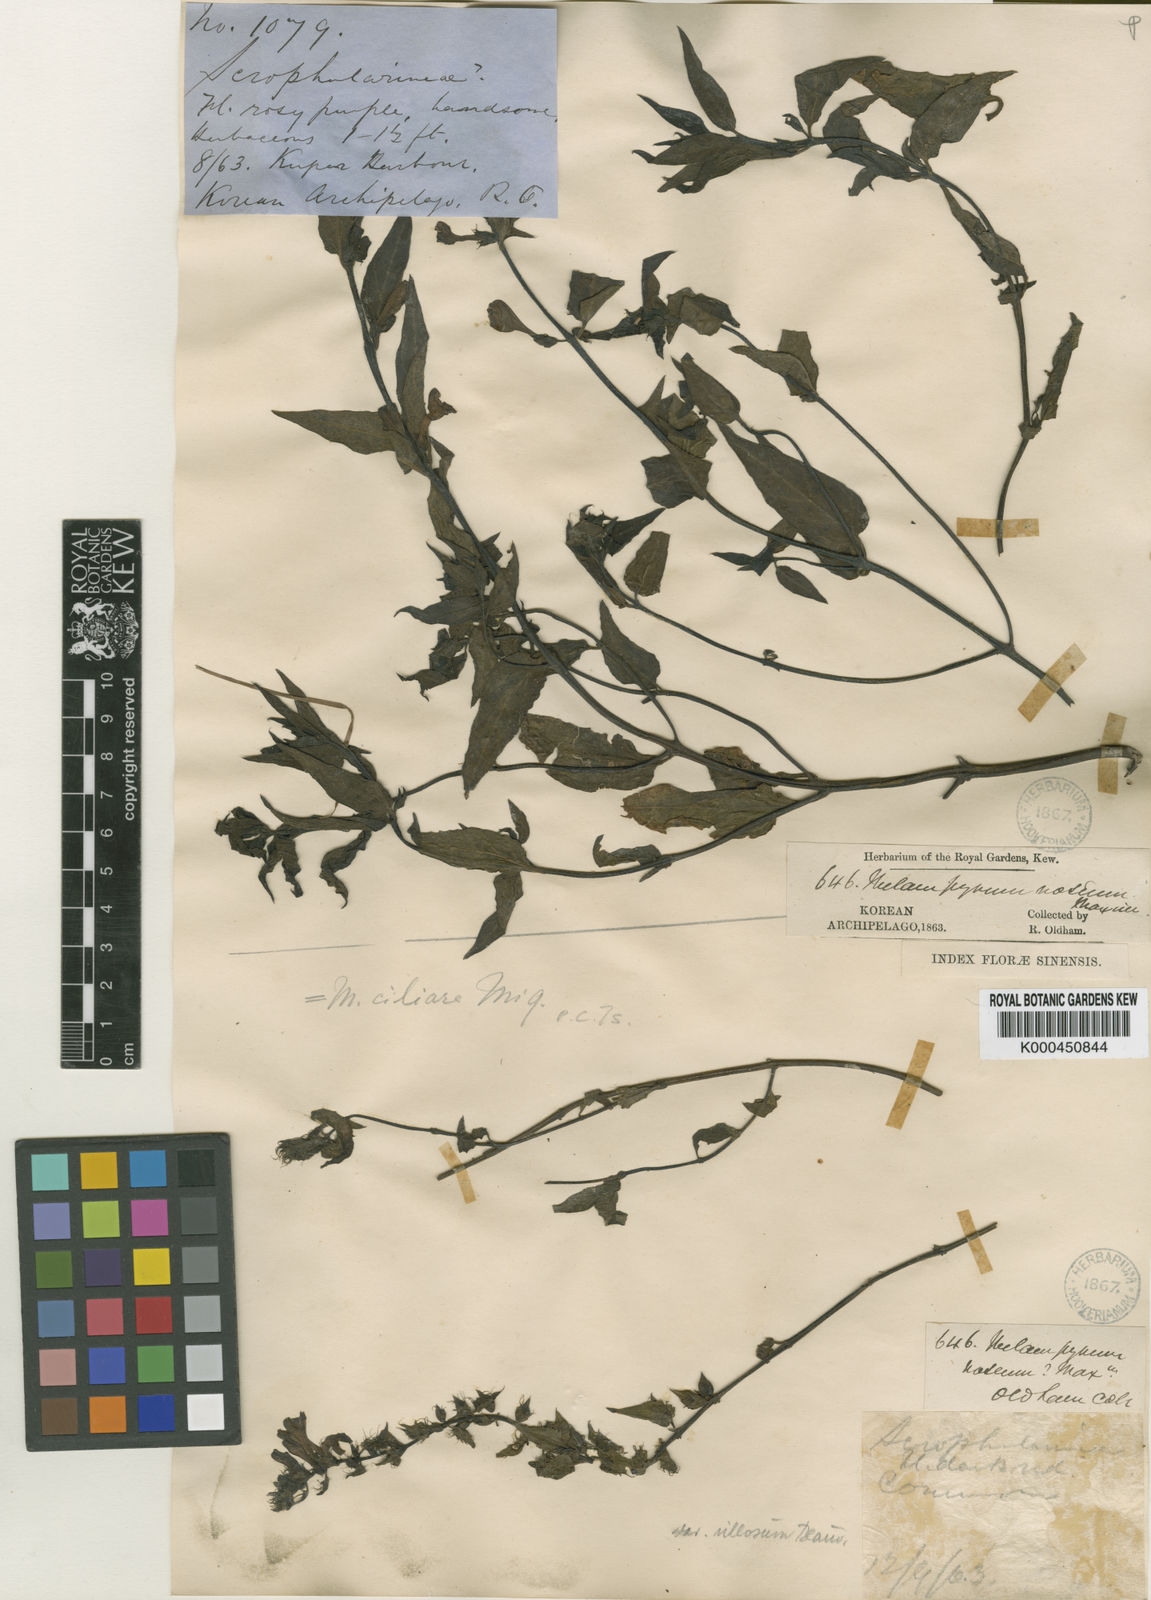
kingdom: Plantae
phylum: Tracheophyta
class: Magnoliopsida
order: Lamiales
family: Orobanchaceae
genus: Melampyrum
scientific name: Melampyrum roseum
